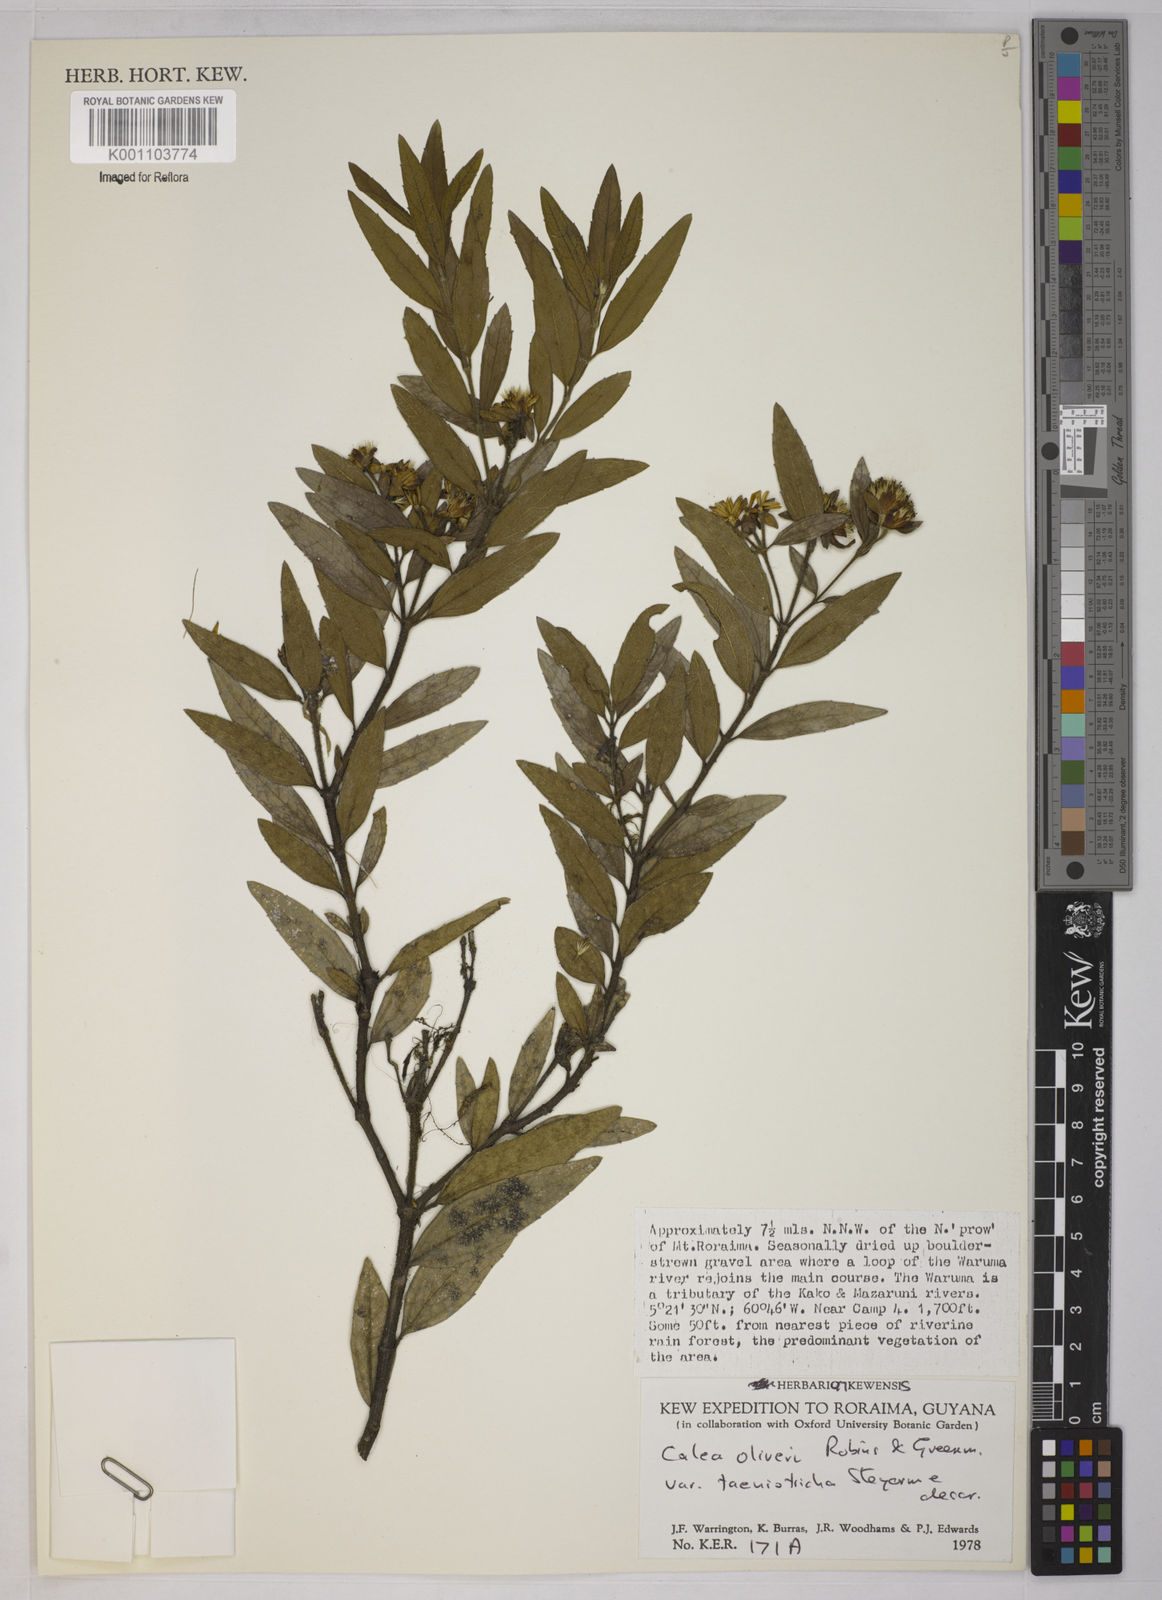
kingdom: Plantae
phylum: Tracheophyta
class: Magnoliopsida
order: Asterales
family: Asteraceae
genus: Calea
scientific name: Calea oliveri
